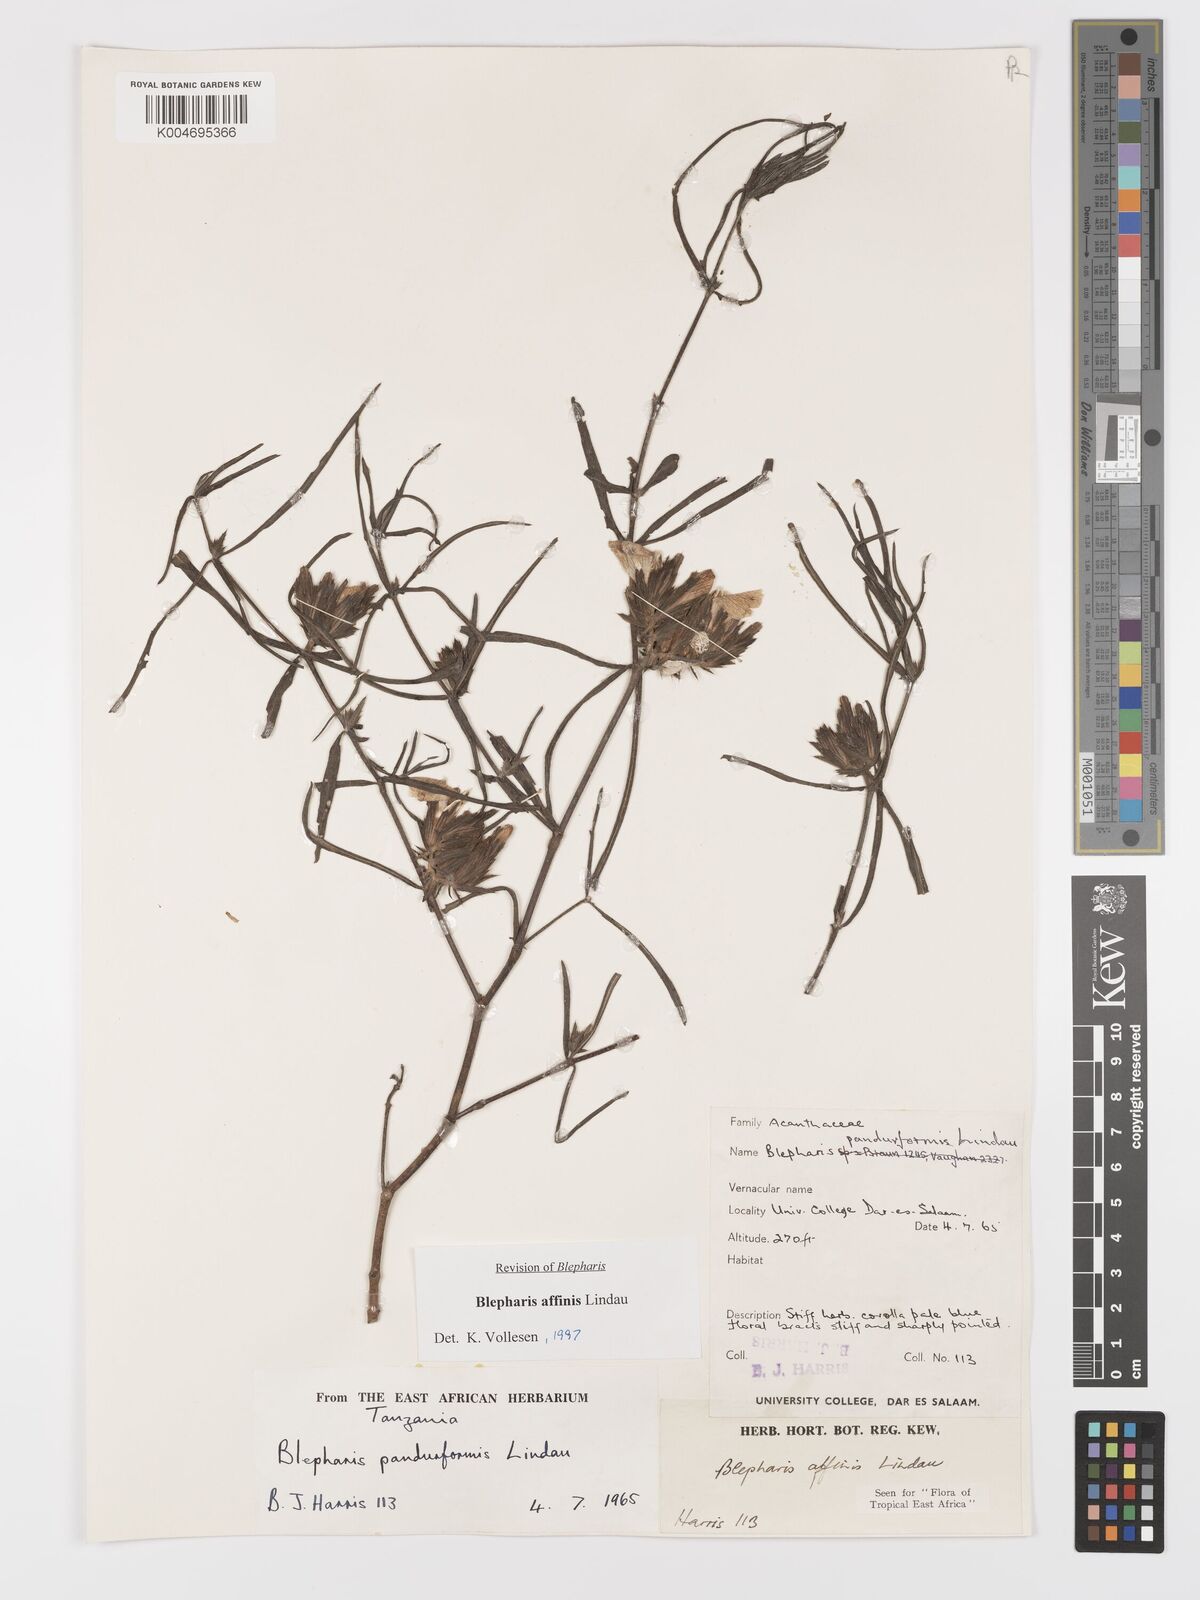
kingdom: Plantae
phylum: Tracheophyta
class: Magnoliopsida
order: Lamiales
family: Acanthaceae
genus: Blepharis
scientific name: Blepharis affinis
